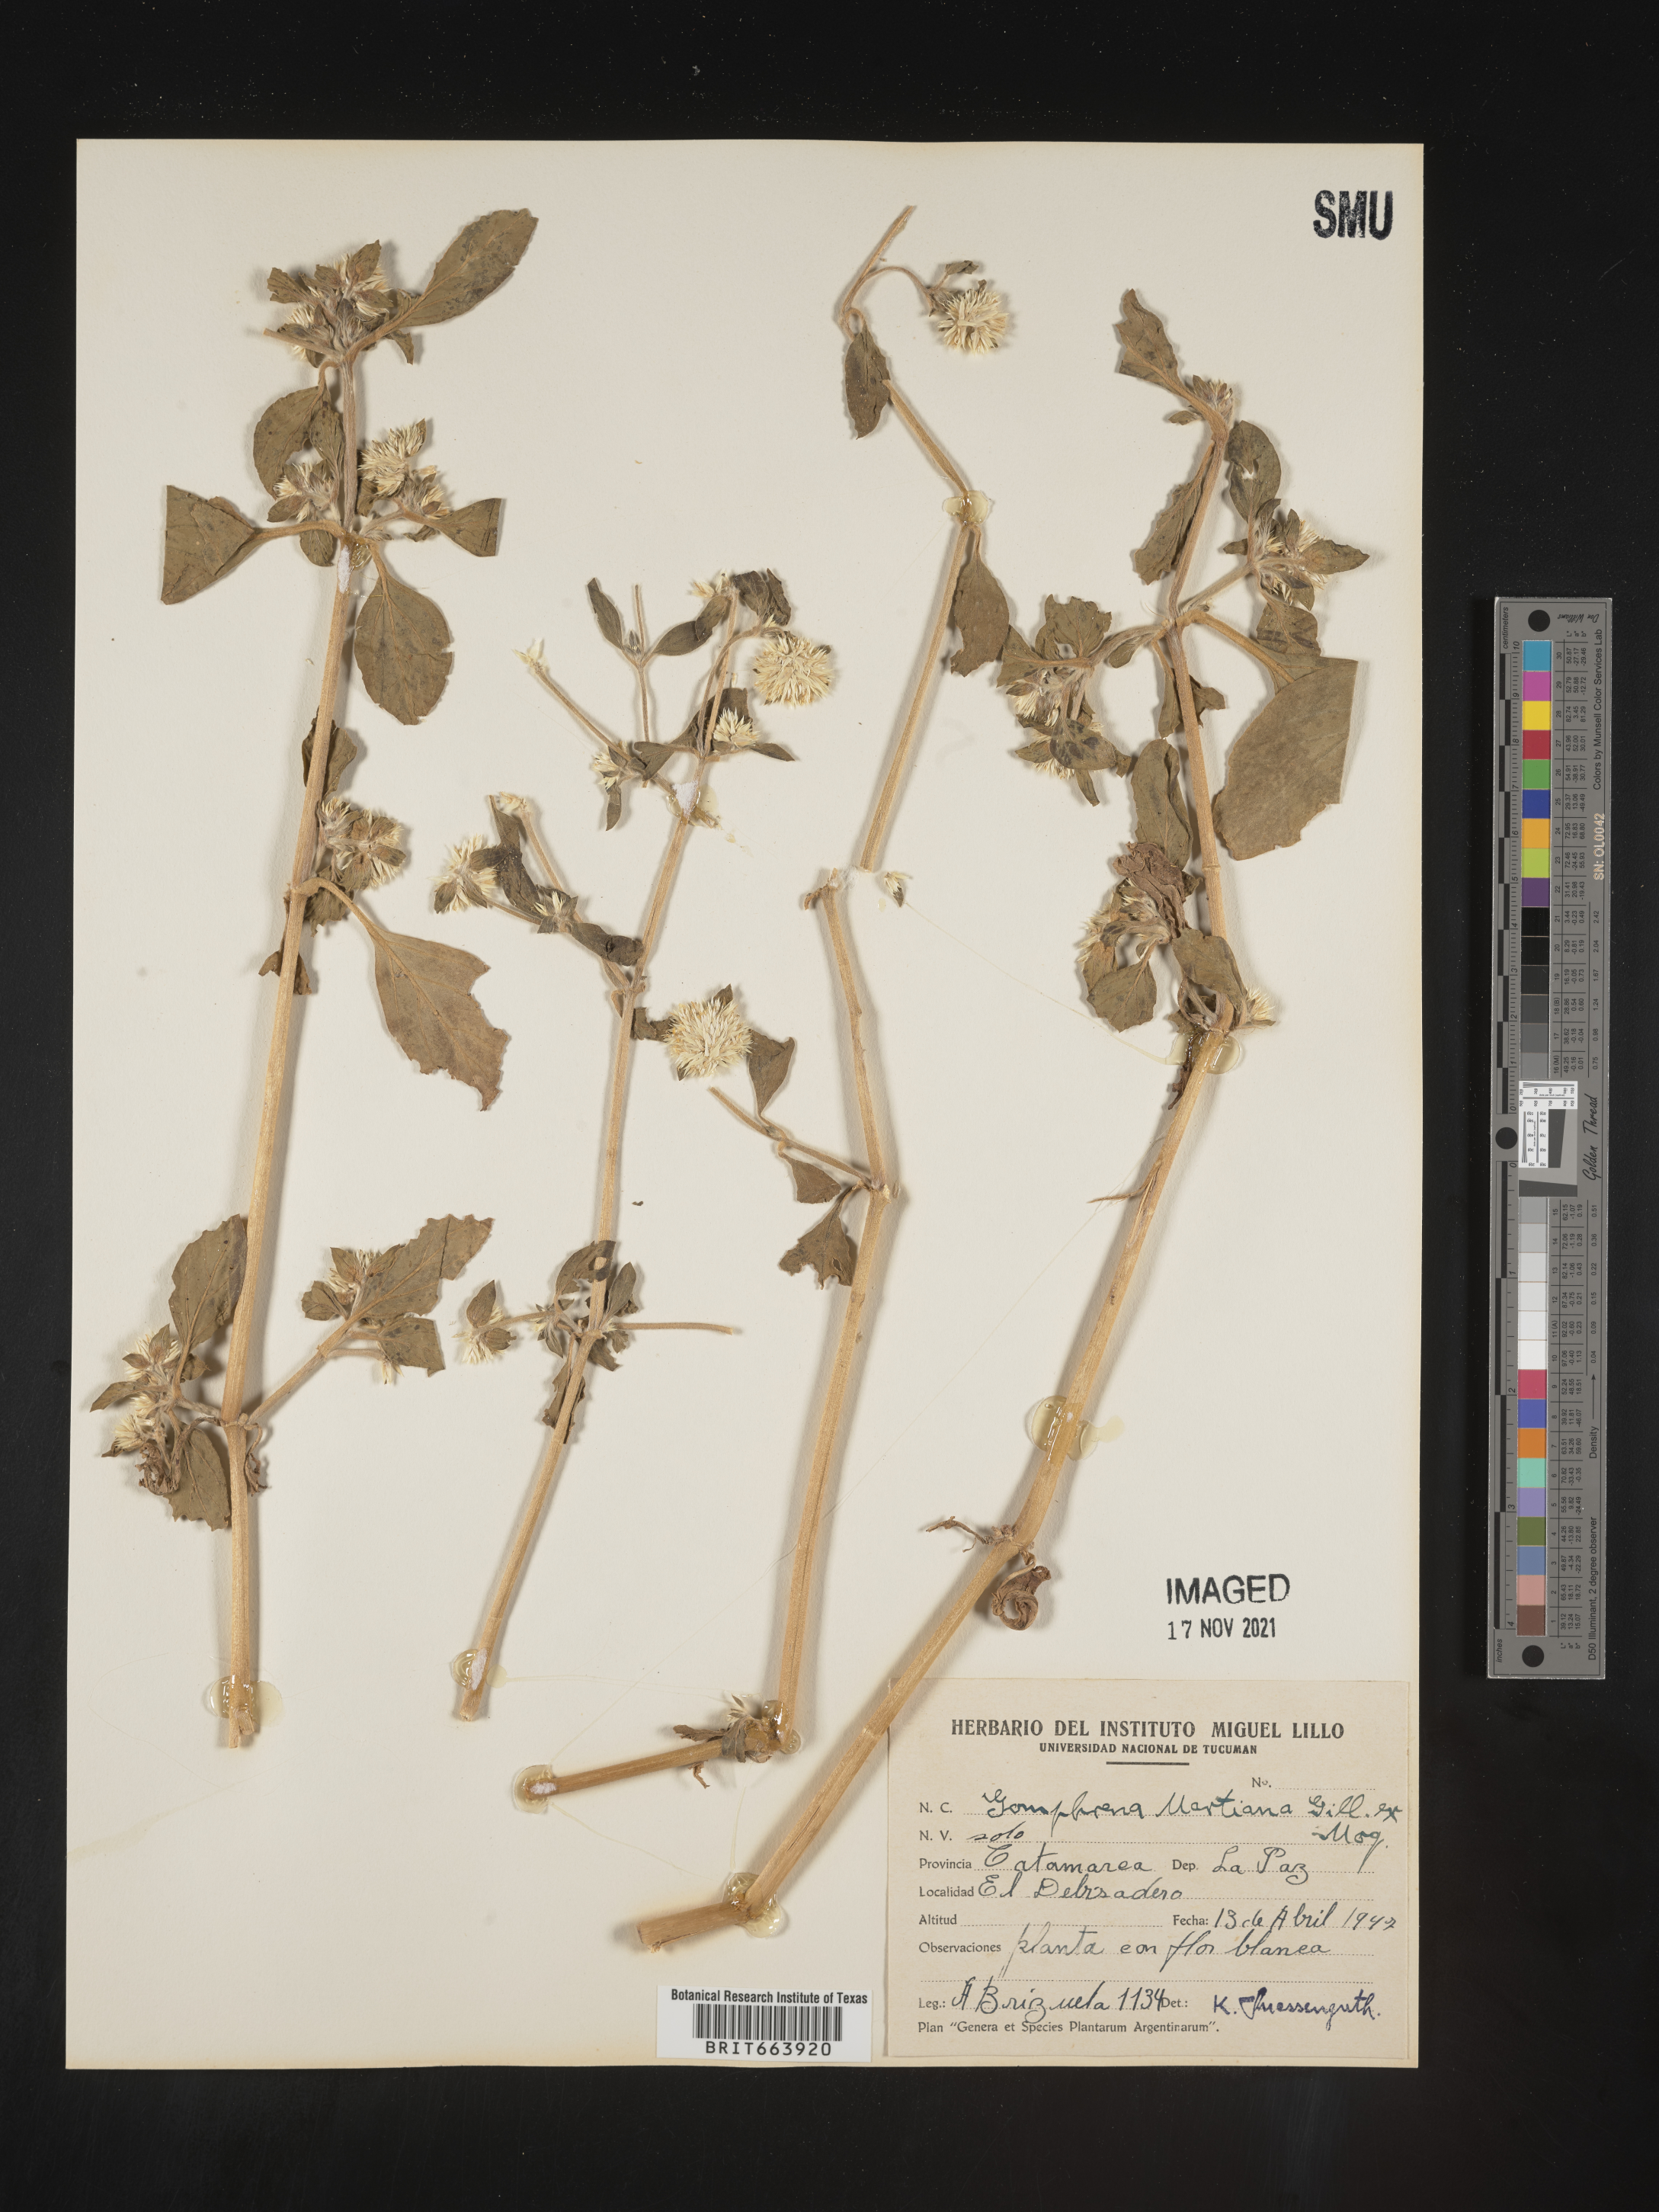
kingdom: Plantae
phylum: Tracheophyta
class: Magnoliopsida
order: Caryophyllales
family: Amaranthaceae
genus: Gomphrena
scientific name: Gomphrena
